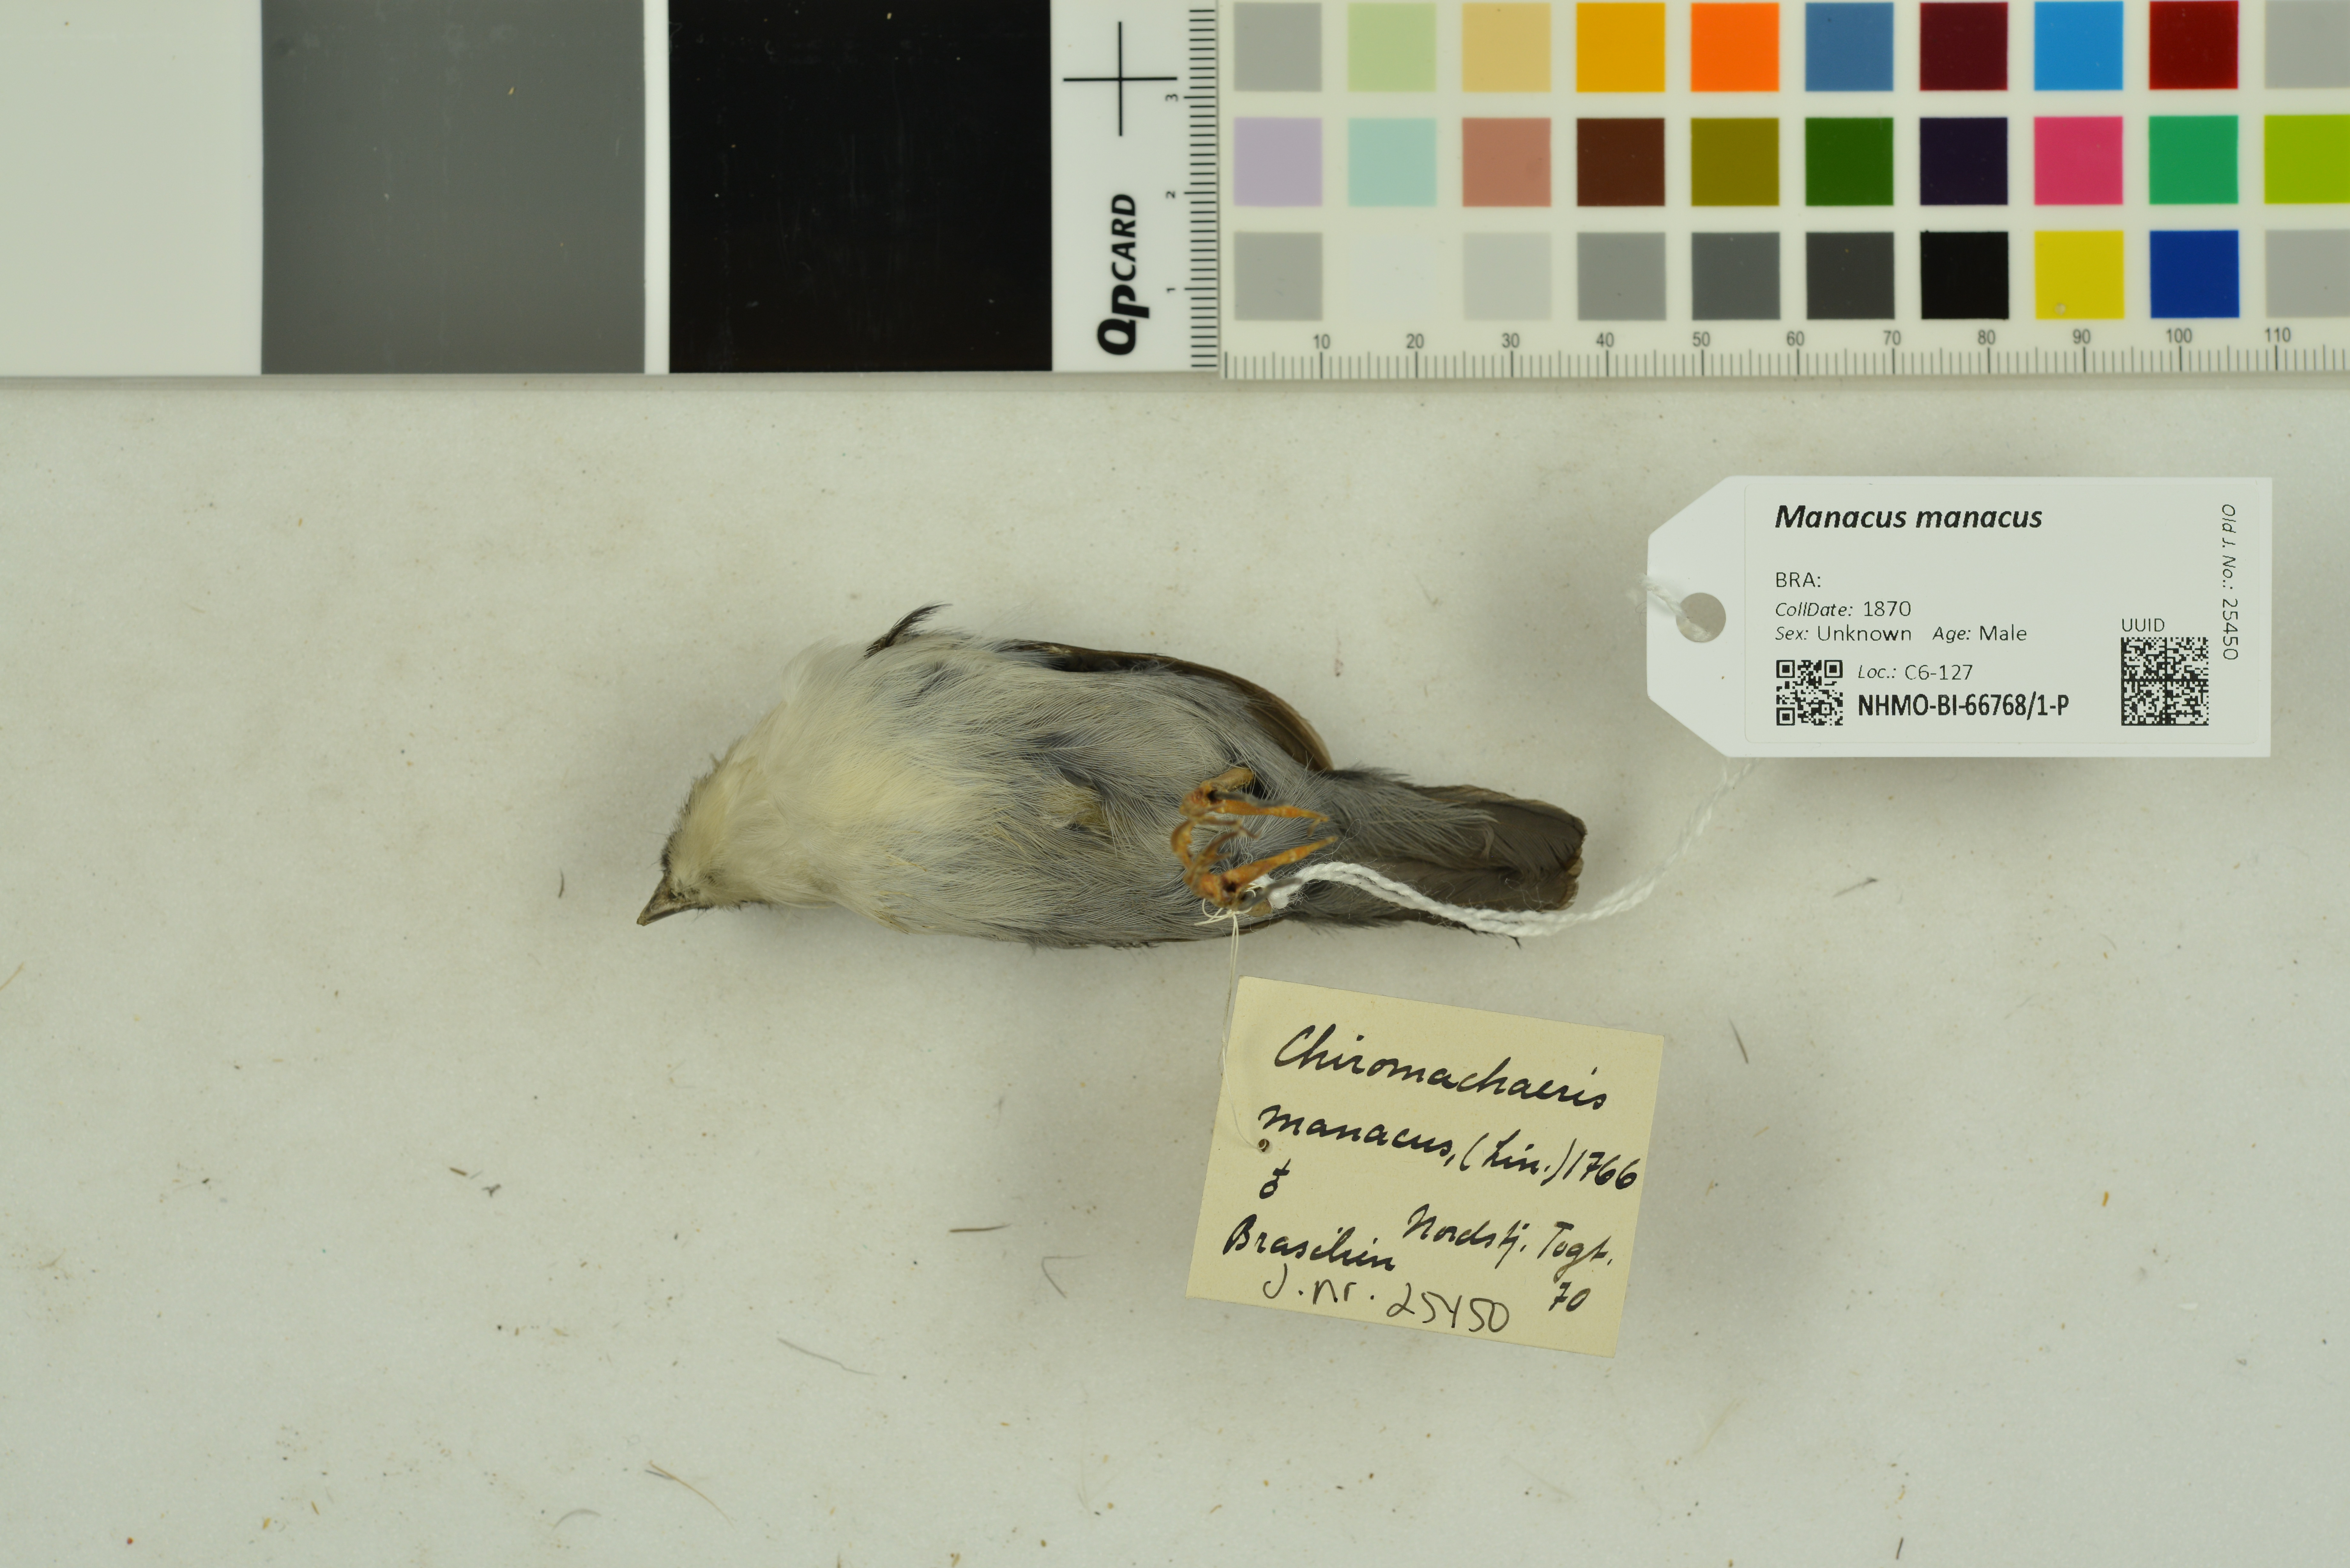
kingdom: Animalia
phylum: Chordata
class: Aves
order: Passeriformes
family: Pipridae
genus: Manacus
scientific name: Manacus manacus
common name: White-bearded manakin
